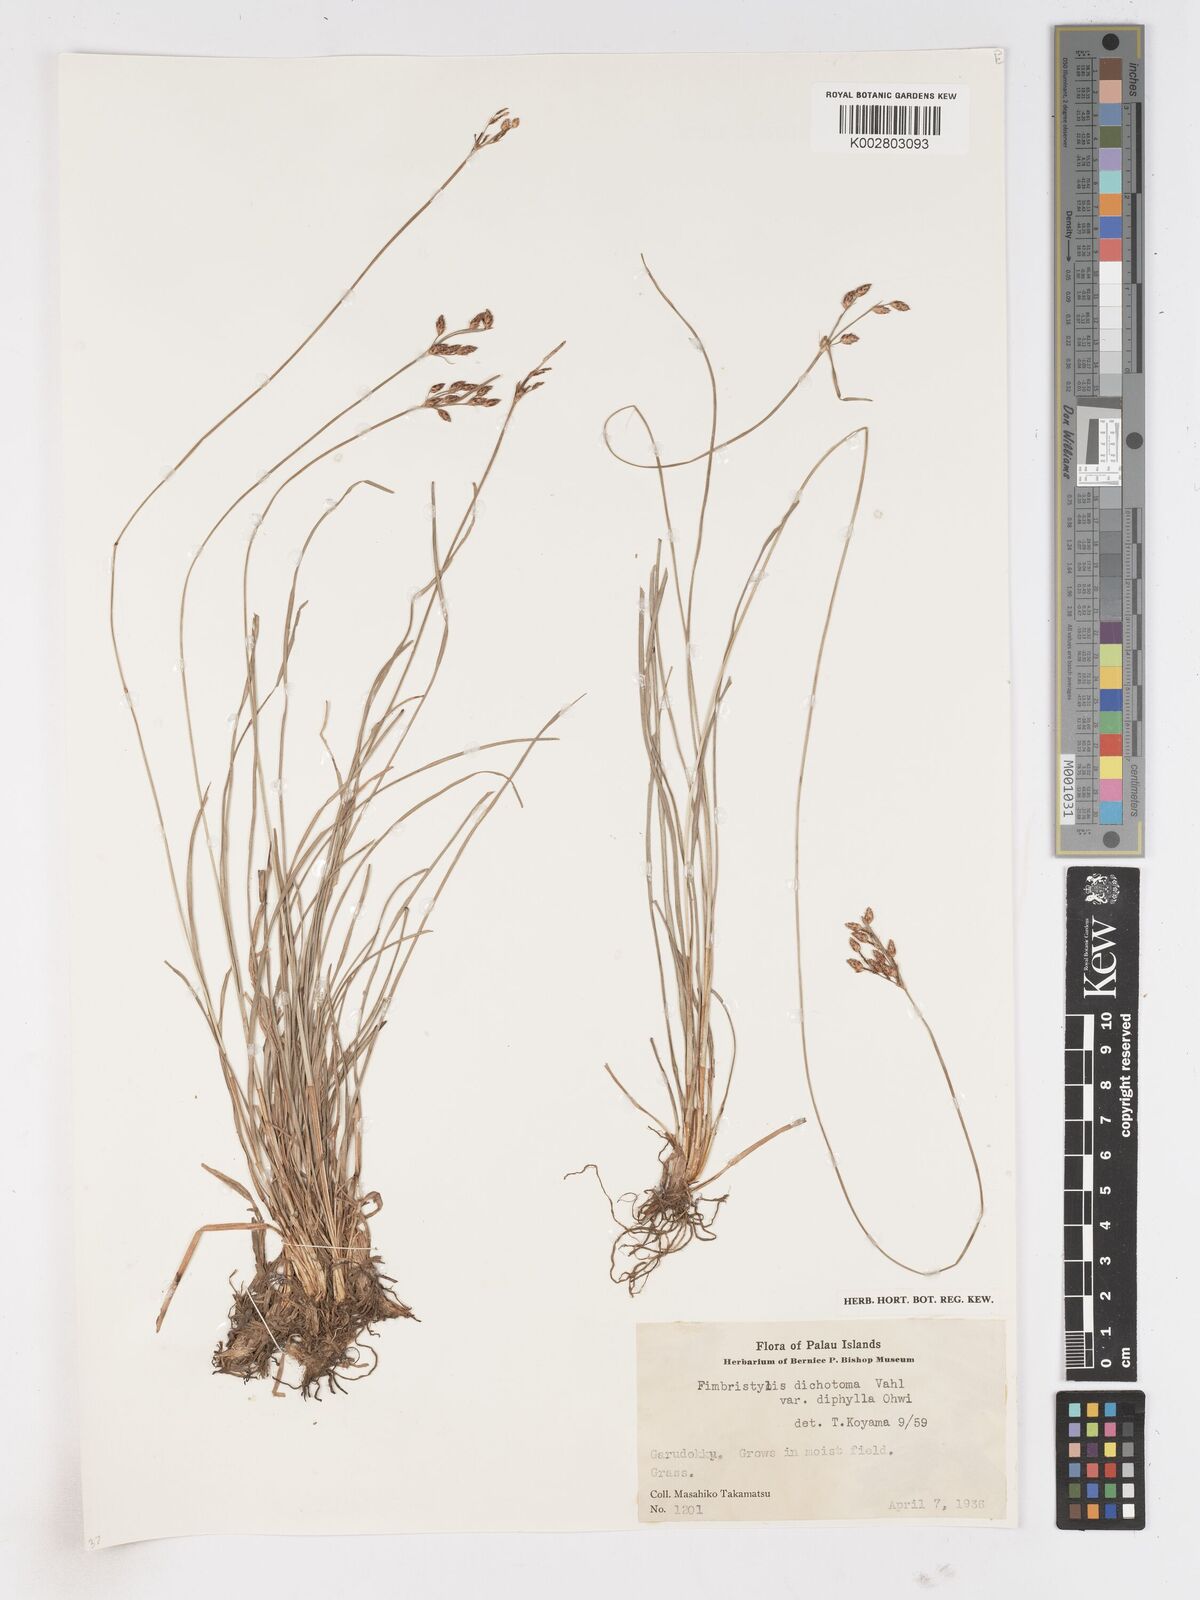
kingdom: Plantae
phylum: Tracheophyta
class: Liliopsida
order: Poales
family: Cyperaceae
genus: Fimbristylis
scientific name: Fimbristylis dichotoma
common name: Forked fimbry
